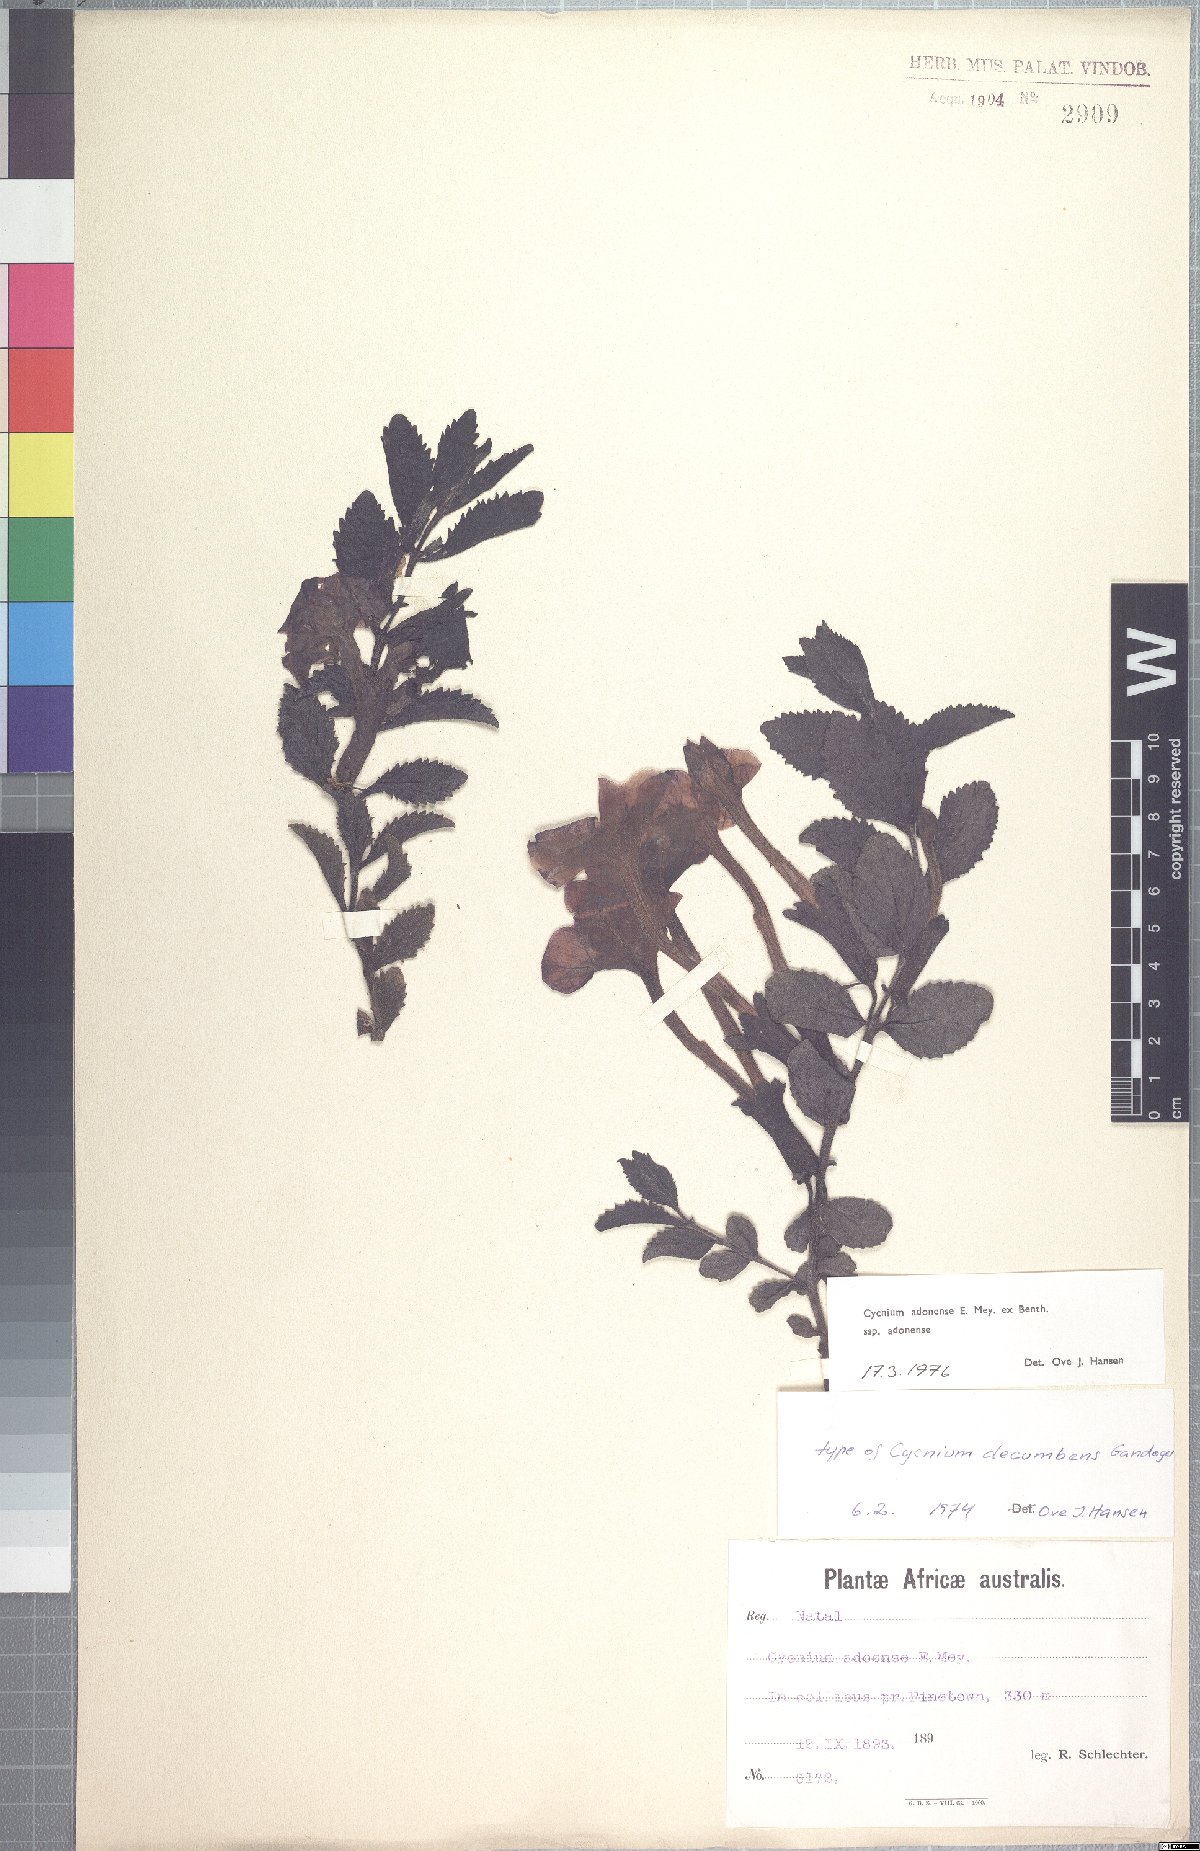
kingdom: Plantae
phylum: Tracheophyta
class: Magnoliopsida
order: Lamiales
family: Orobanchaceae
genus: Cycnium
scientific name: Cycnium adoense
